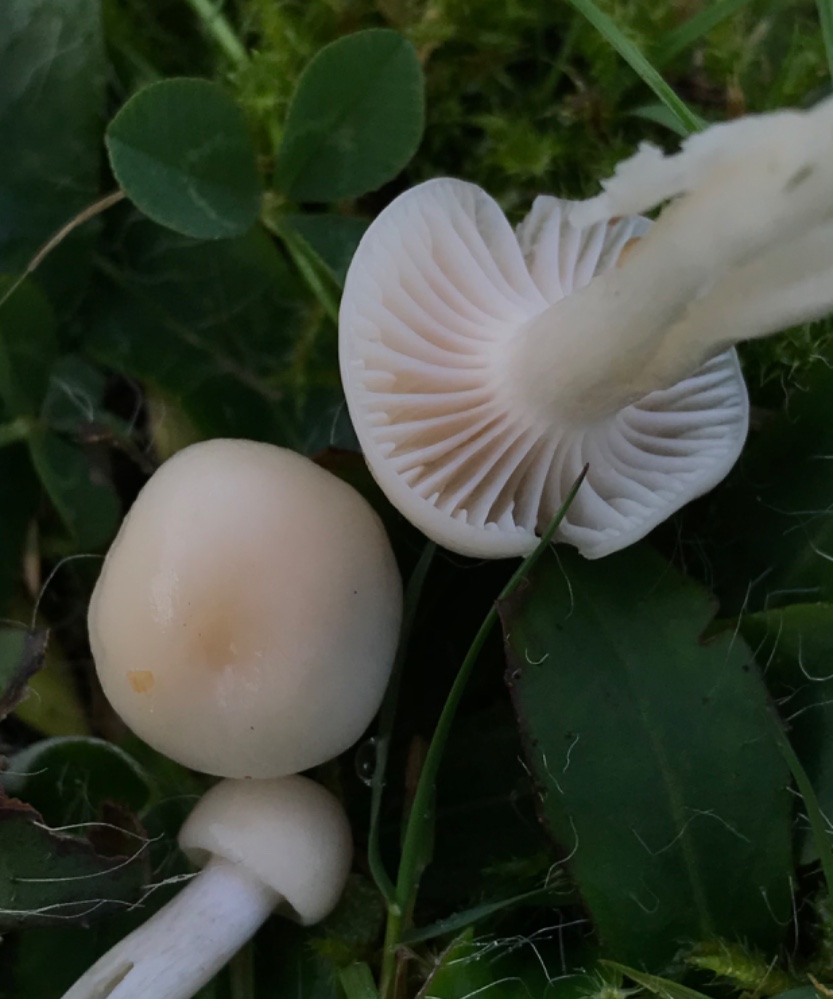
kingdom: Fungi
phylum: Basidiomycota
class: Agaricomycetes
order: Agaricales
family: Hygrophoraceae
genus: Cuphophyllus
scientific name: Cuphophyllus
